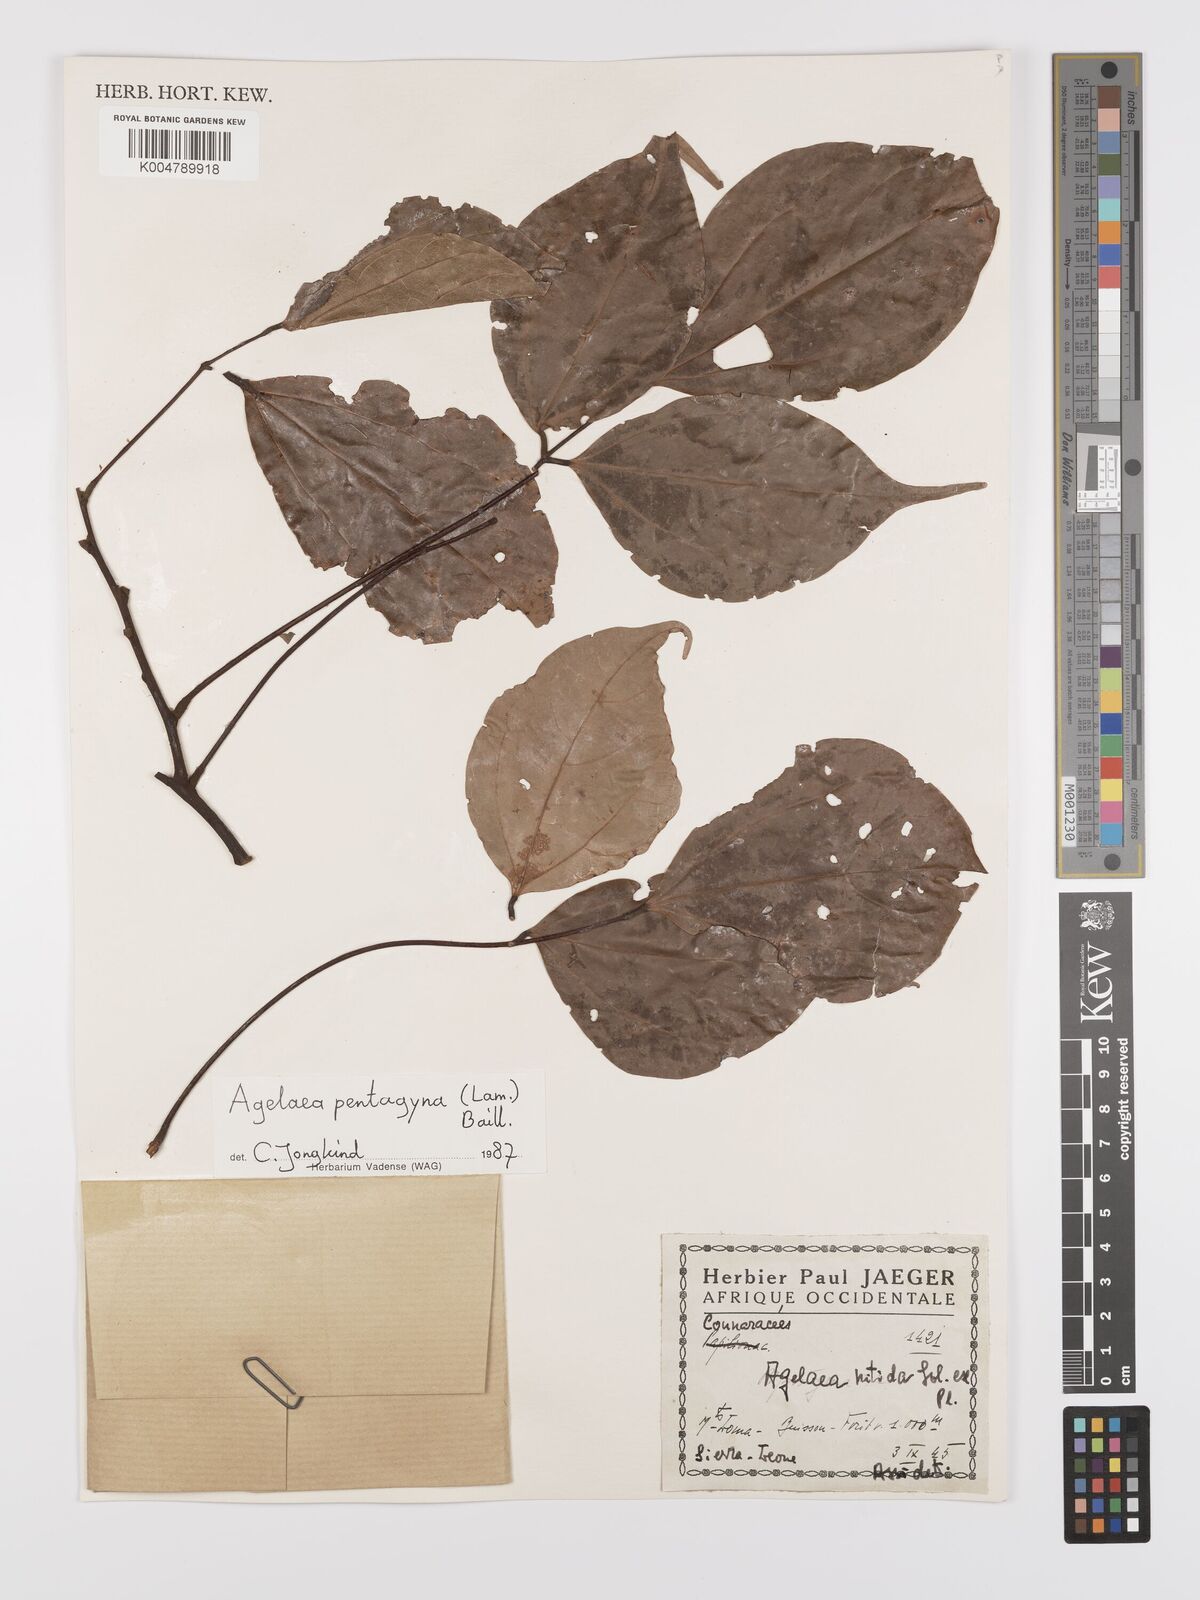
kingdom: Plantae
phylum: Tracheophyta
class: Magnoliopsida
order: Oxalidales
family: Connaraceae
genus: Agelaea
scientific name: Agelaea pentagyna
